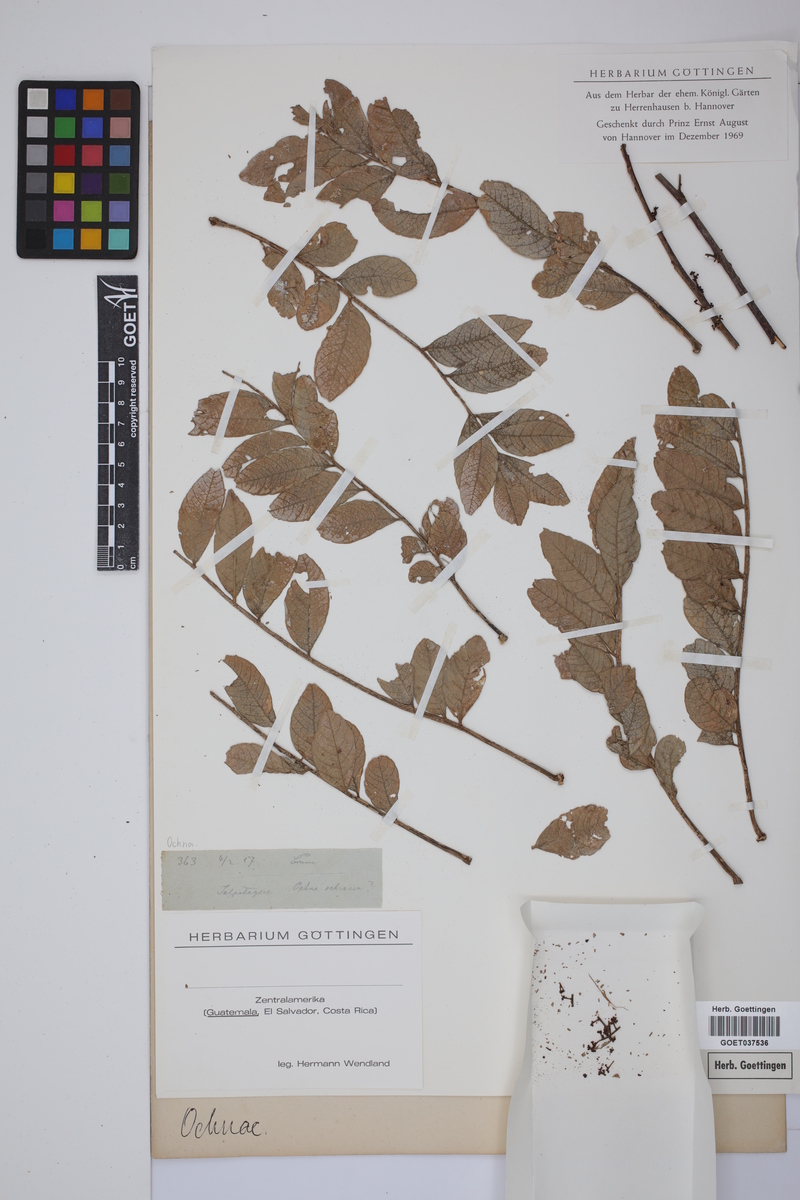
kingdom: Plantae
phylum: Tracheophyta
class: Magnoliopsida
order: Malpighiales
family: Ochnaceae
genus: Ochna
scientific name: Ochna
